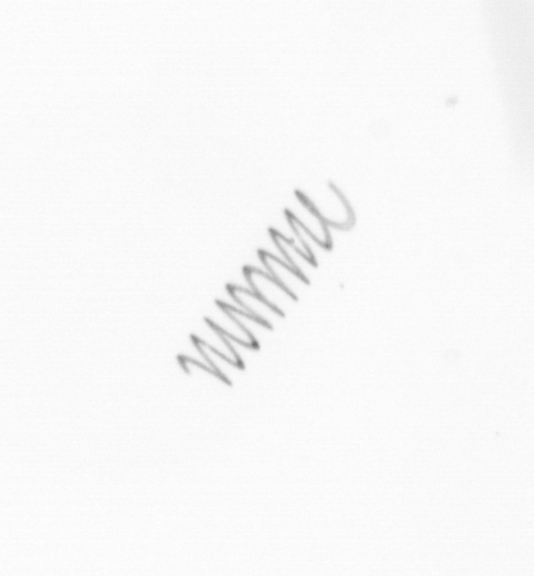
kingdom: Chromista
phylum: Ochrophyta
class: Bacillariophyceae
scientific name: Bacillariophyceae
